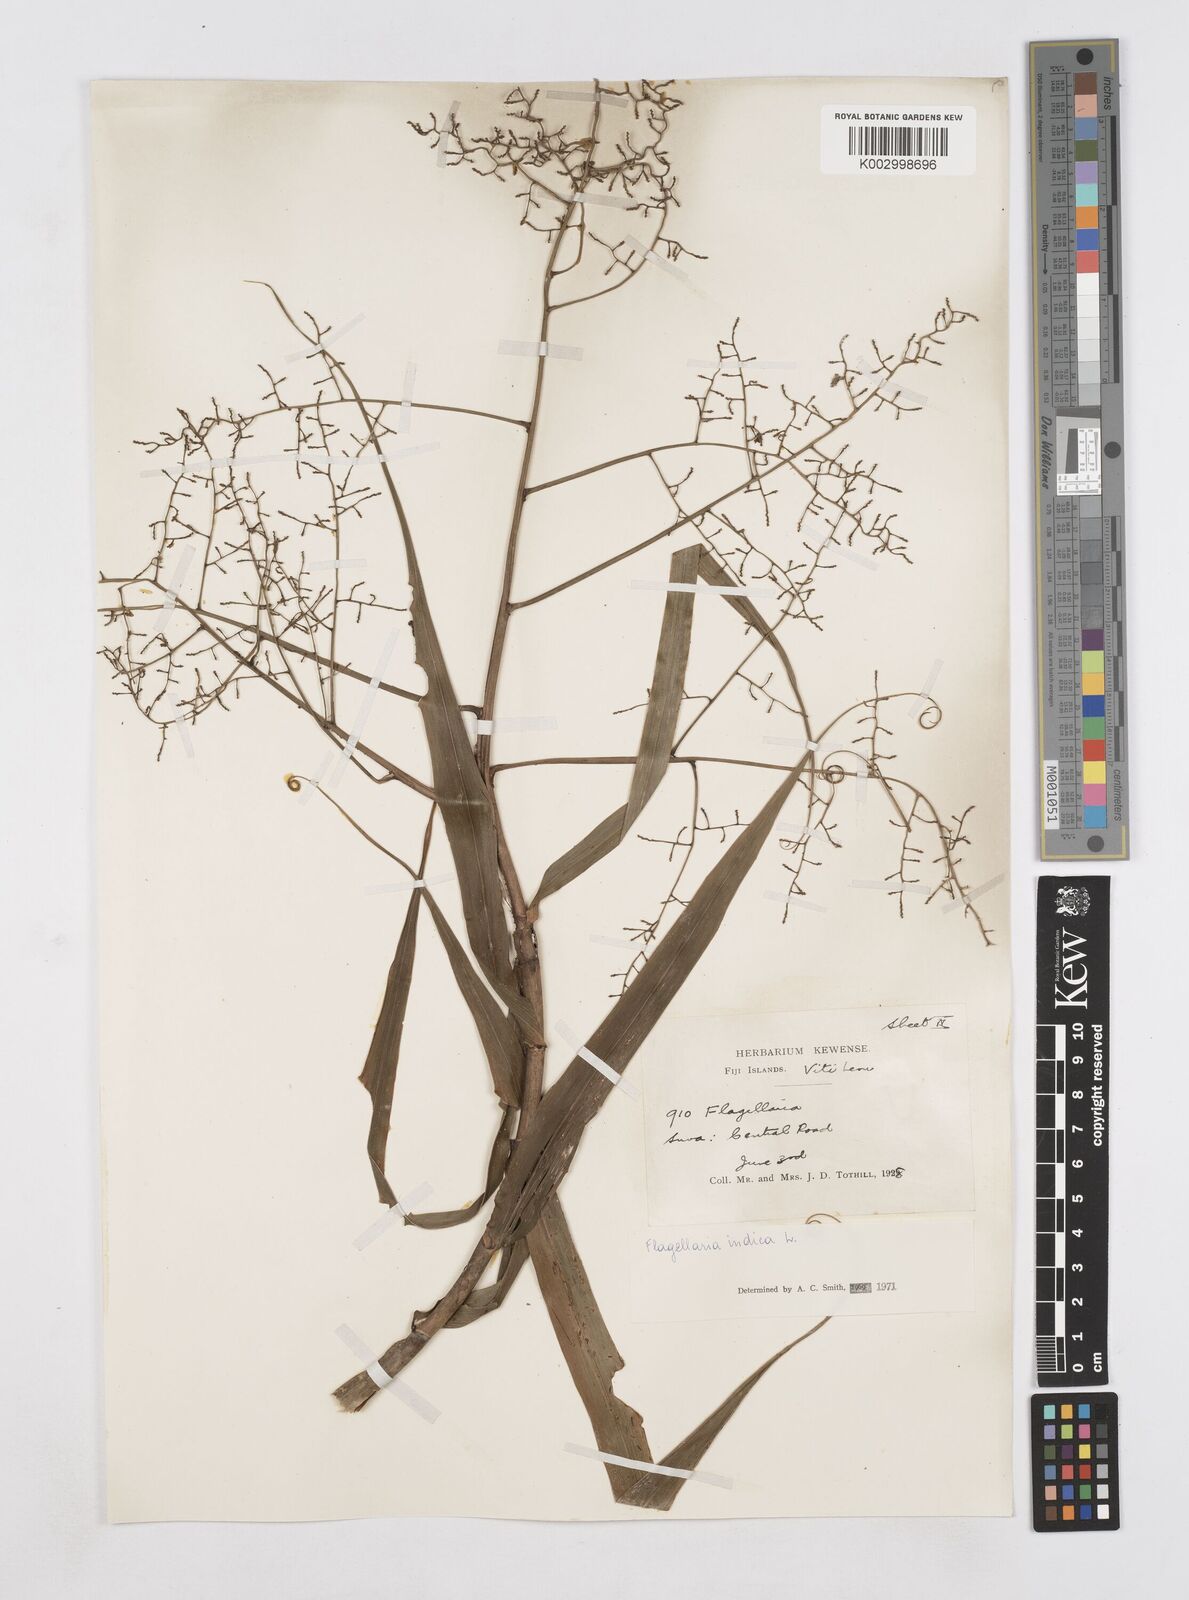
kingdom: Plantae
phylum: Tracheophyta
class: Liliopsida
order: Poales
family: Flagellariaceae
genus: Flagellaria
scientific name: Flagellaria indica
